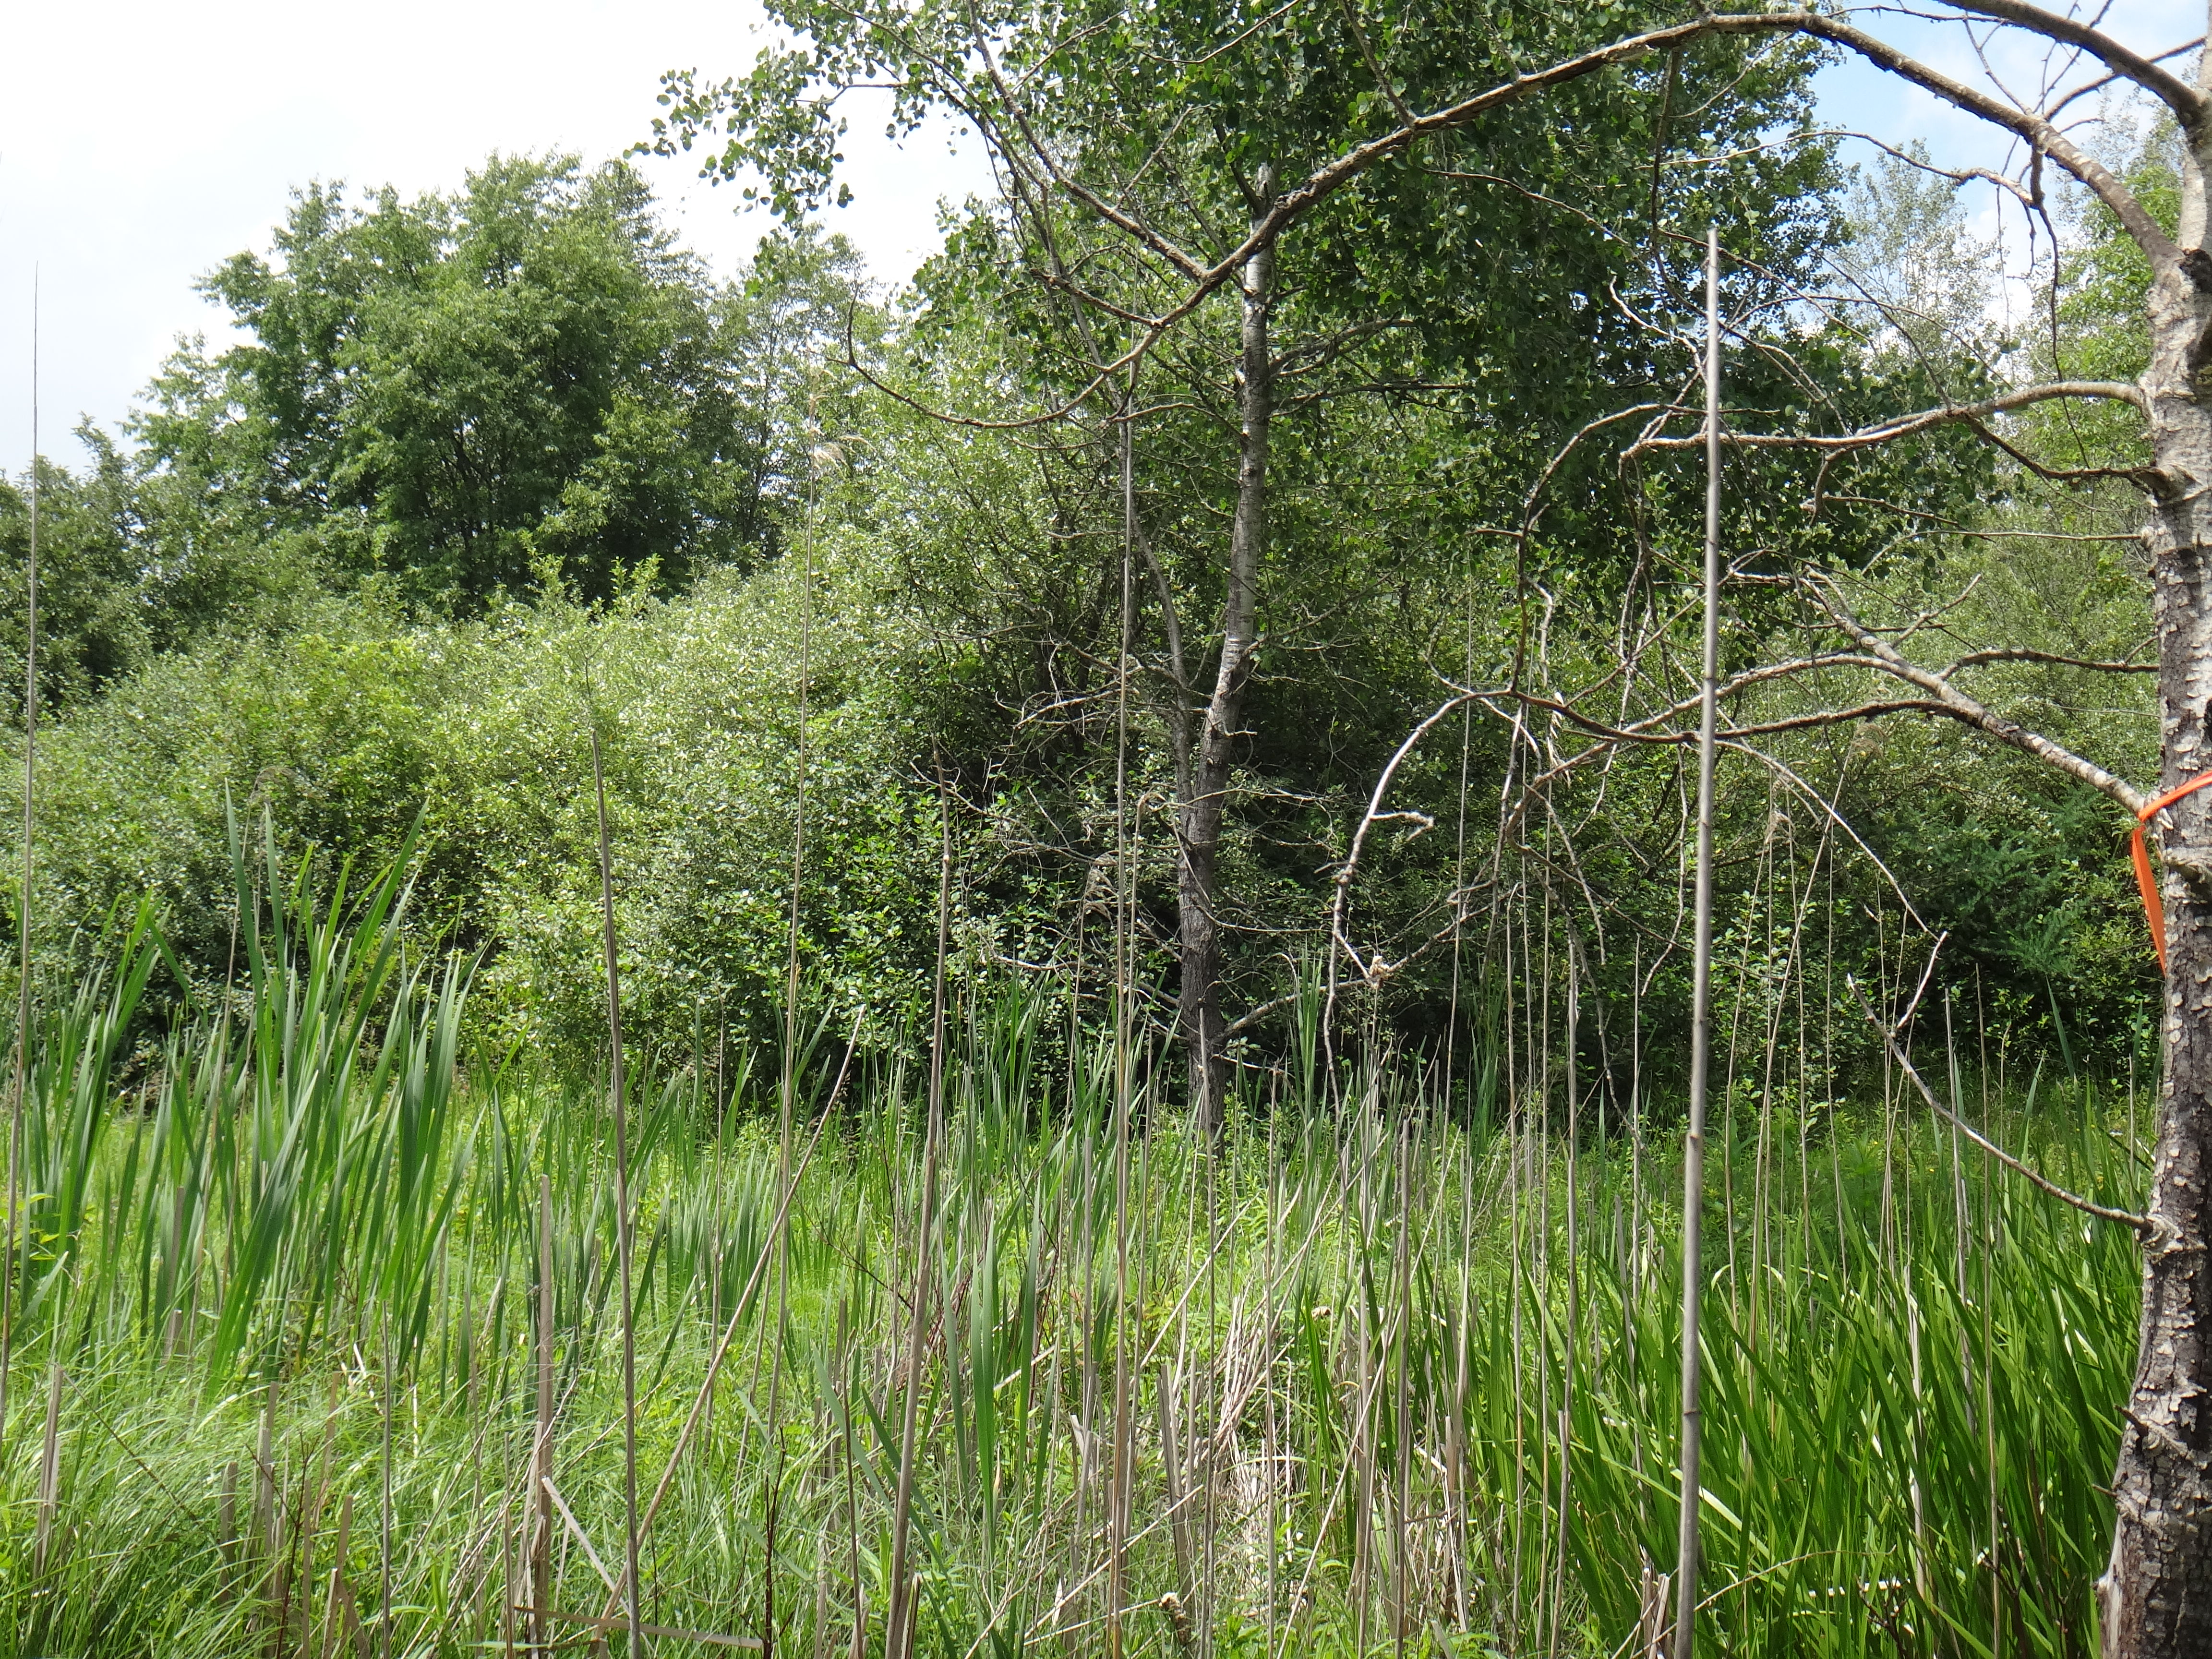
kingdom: Plantae
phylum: Tracheophyta
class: Magnoliopsida
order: Rosales
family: Rhamnaceae
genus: Frangula
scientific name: Frangula alnus
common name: Alder buckthorn
